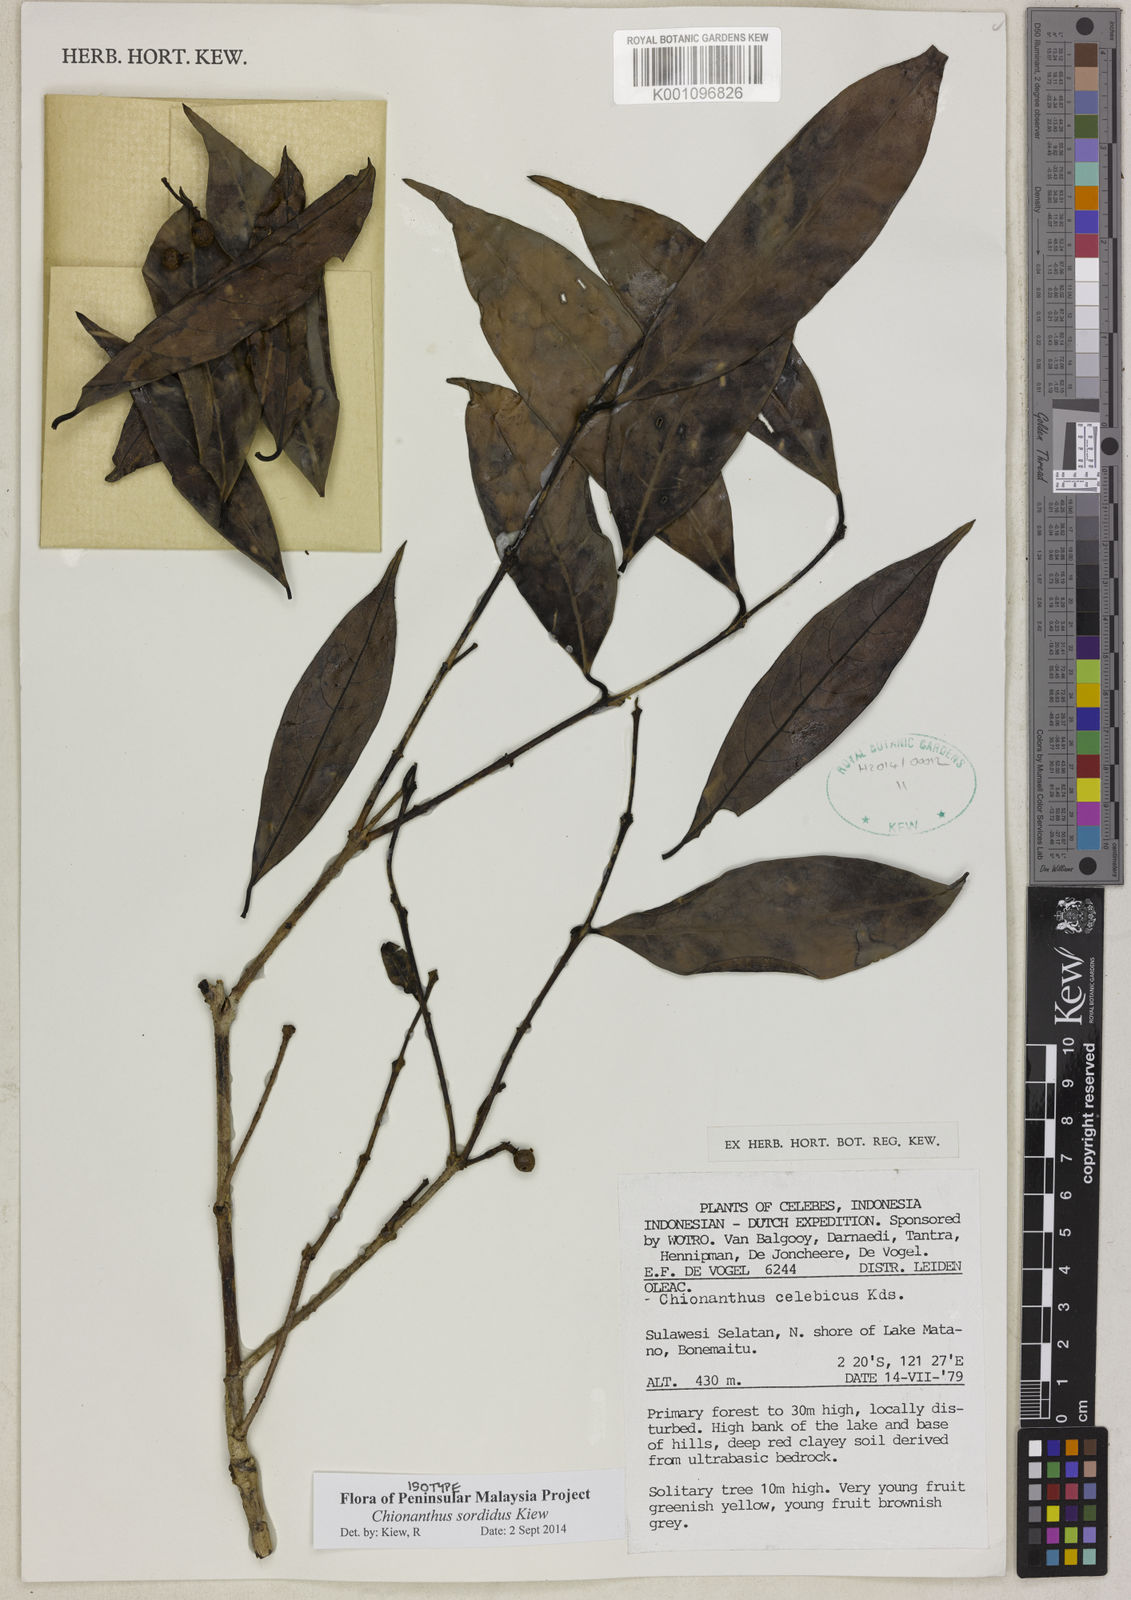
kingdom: Plantae
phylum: Tracheophyta
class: Magnoliopsida
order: Lamiales
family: Oleaceae
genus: Chionanthus
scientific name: Chionanthus sordidus
